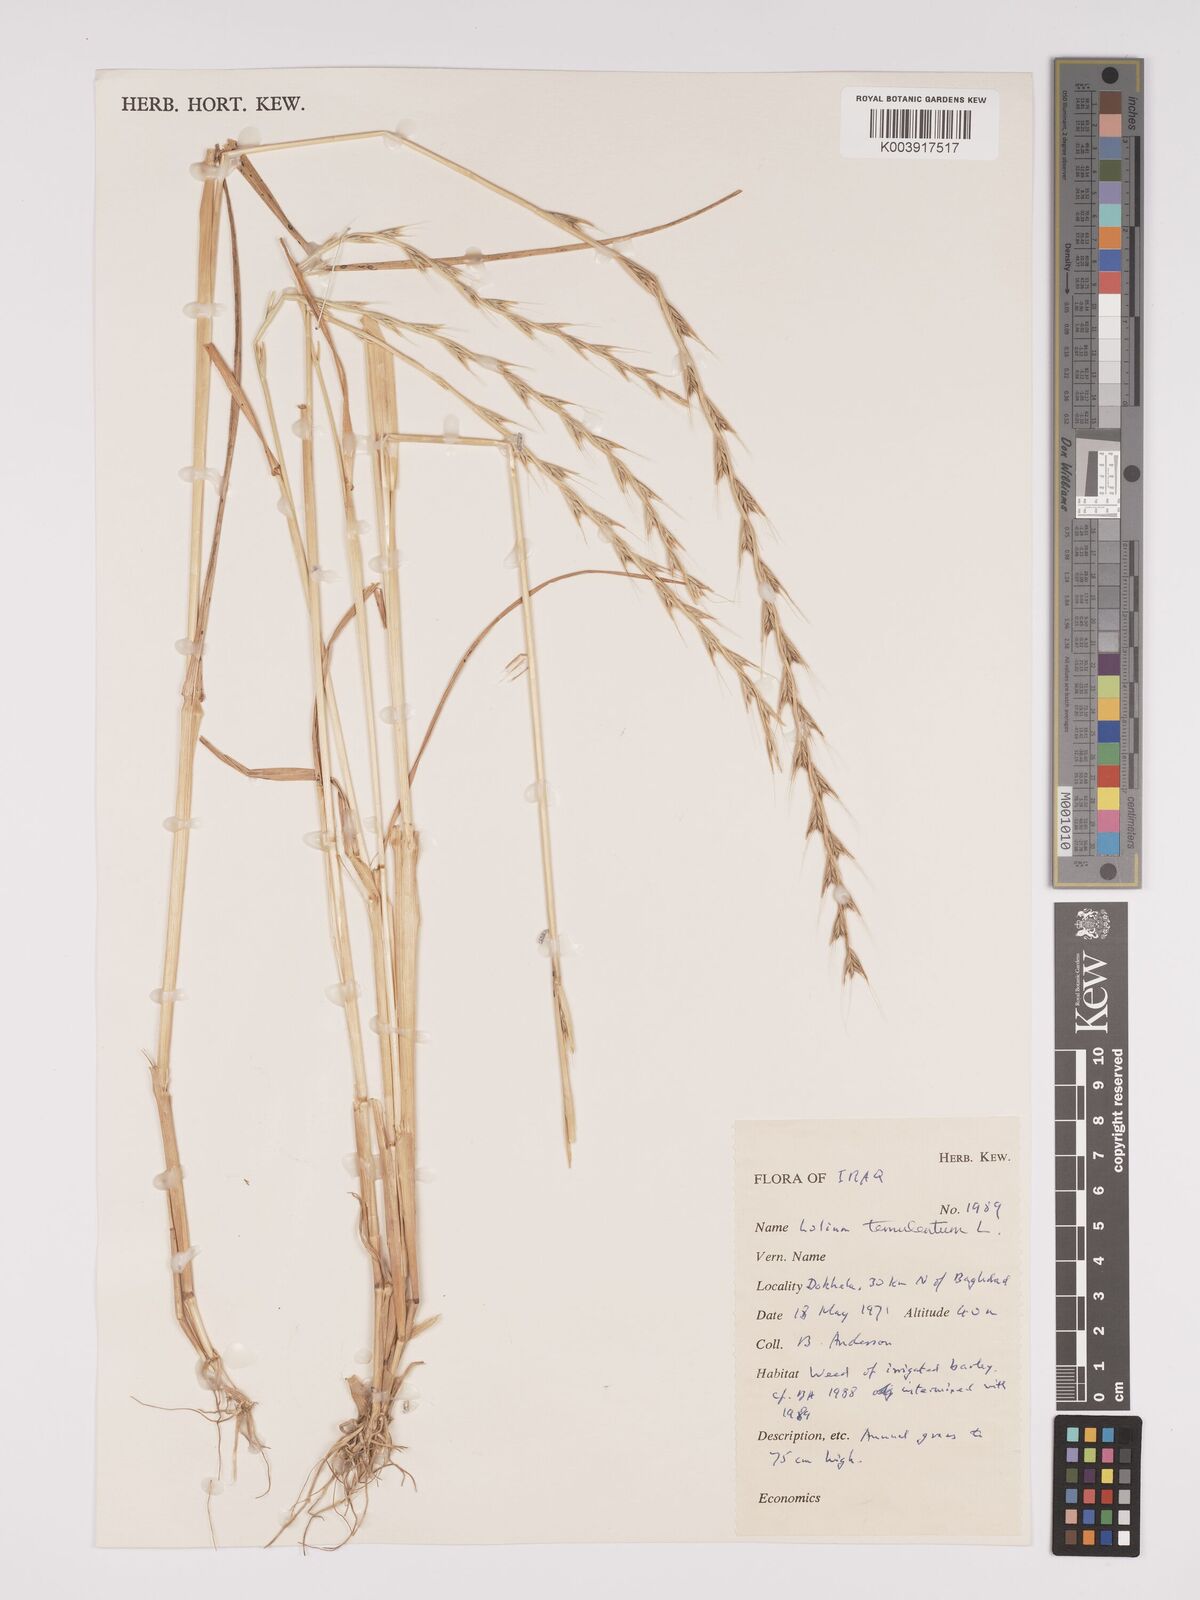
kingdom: Plantae
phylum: Tracheophyta
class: Liliopsida
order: Poales
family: Poaceae
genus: Lolium
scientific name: Lolium temulentum
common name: Darnel
